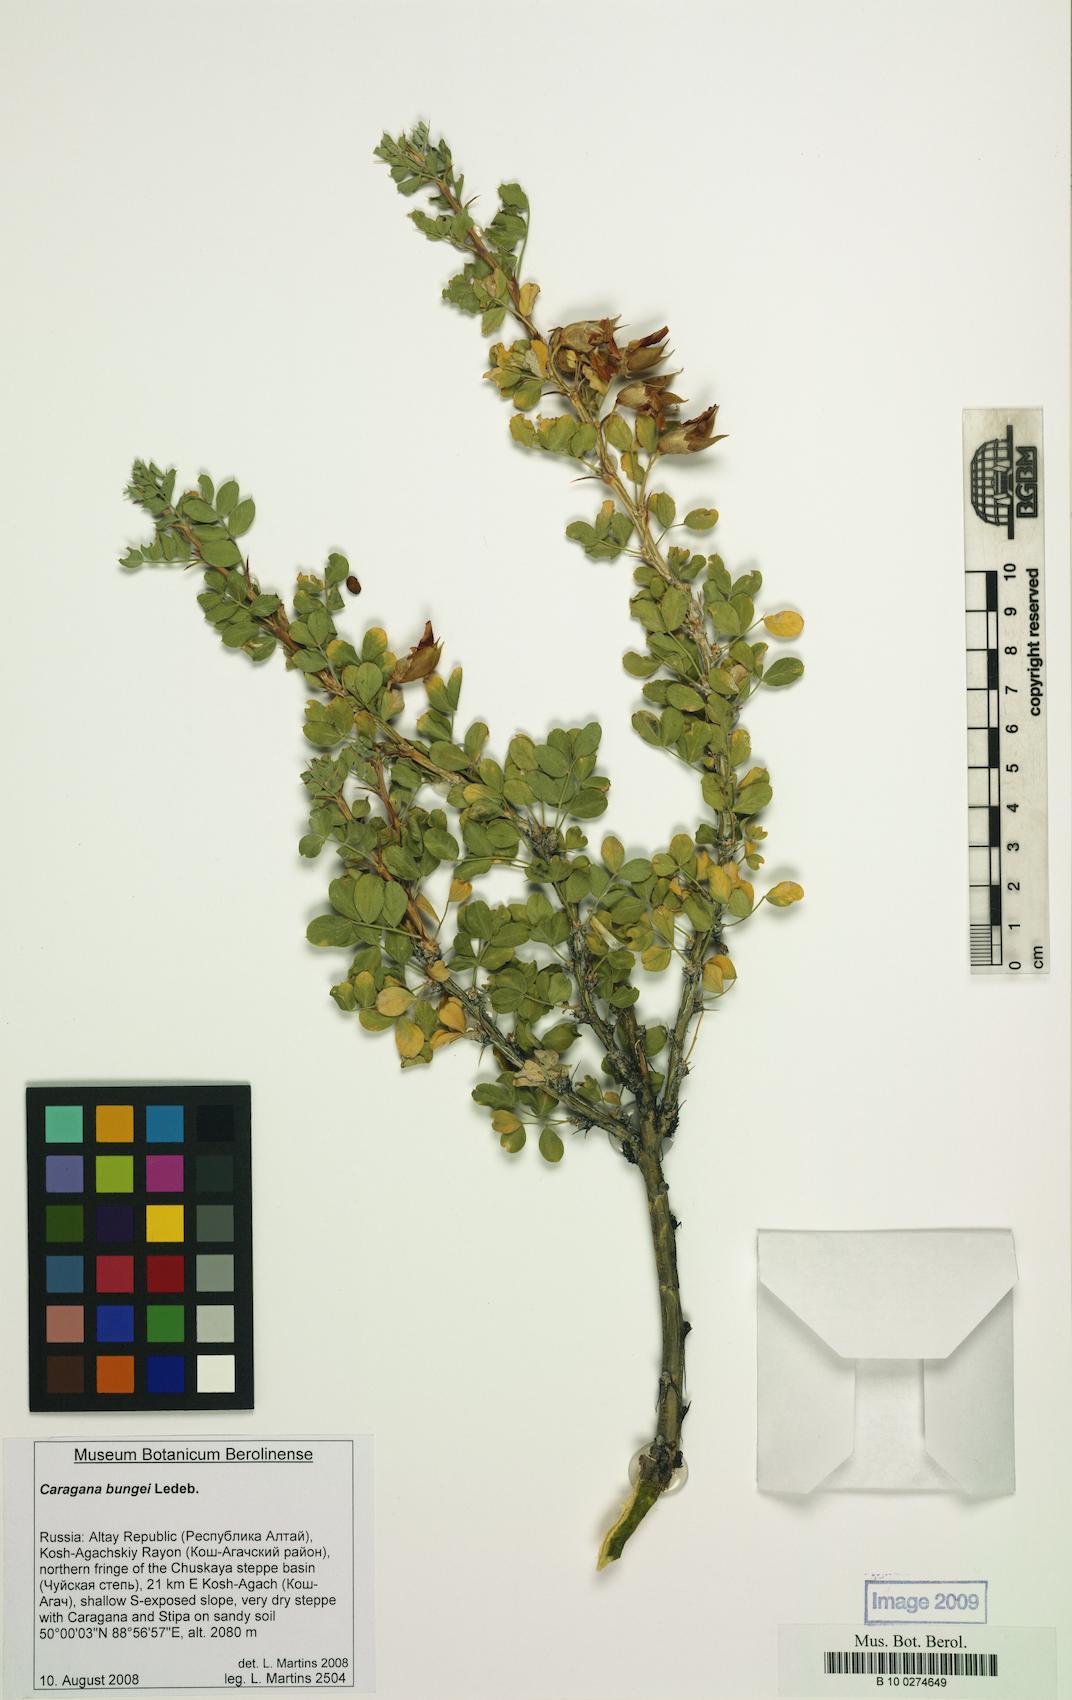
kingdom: Plantae
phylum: Tracheophyta
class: Magnoliopsida
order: Fabales
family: Fabaceae
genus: Caragana
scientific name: Caragana bungei
